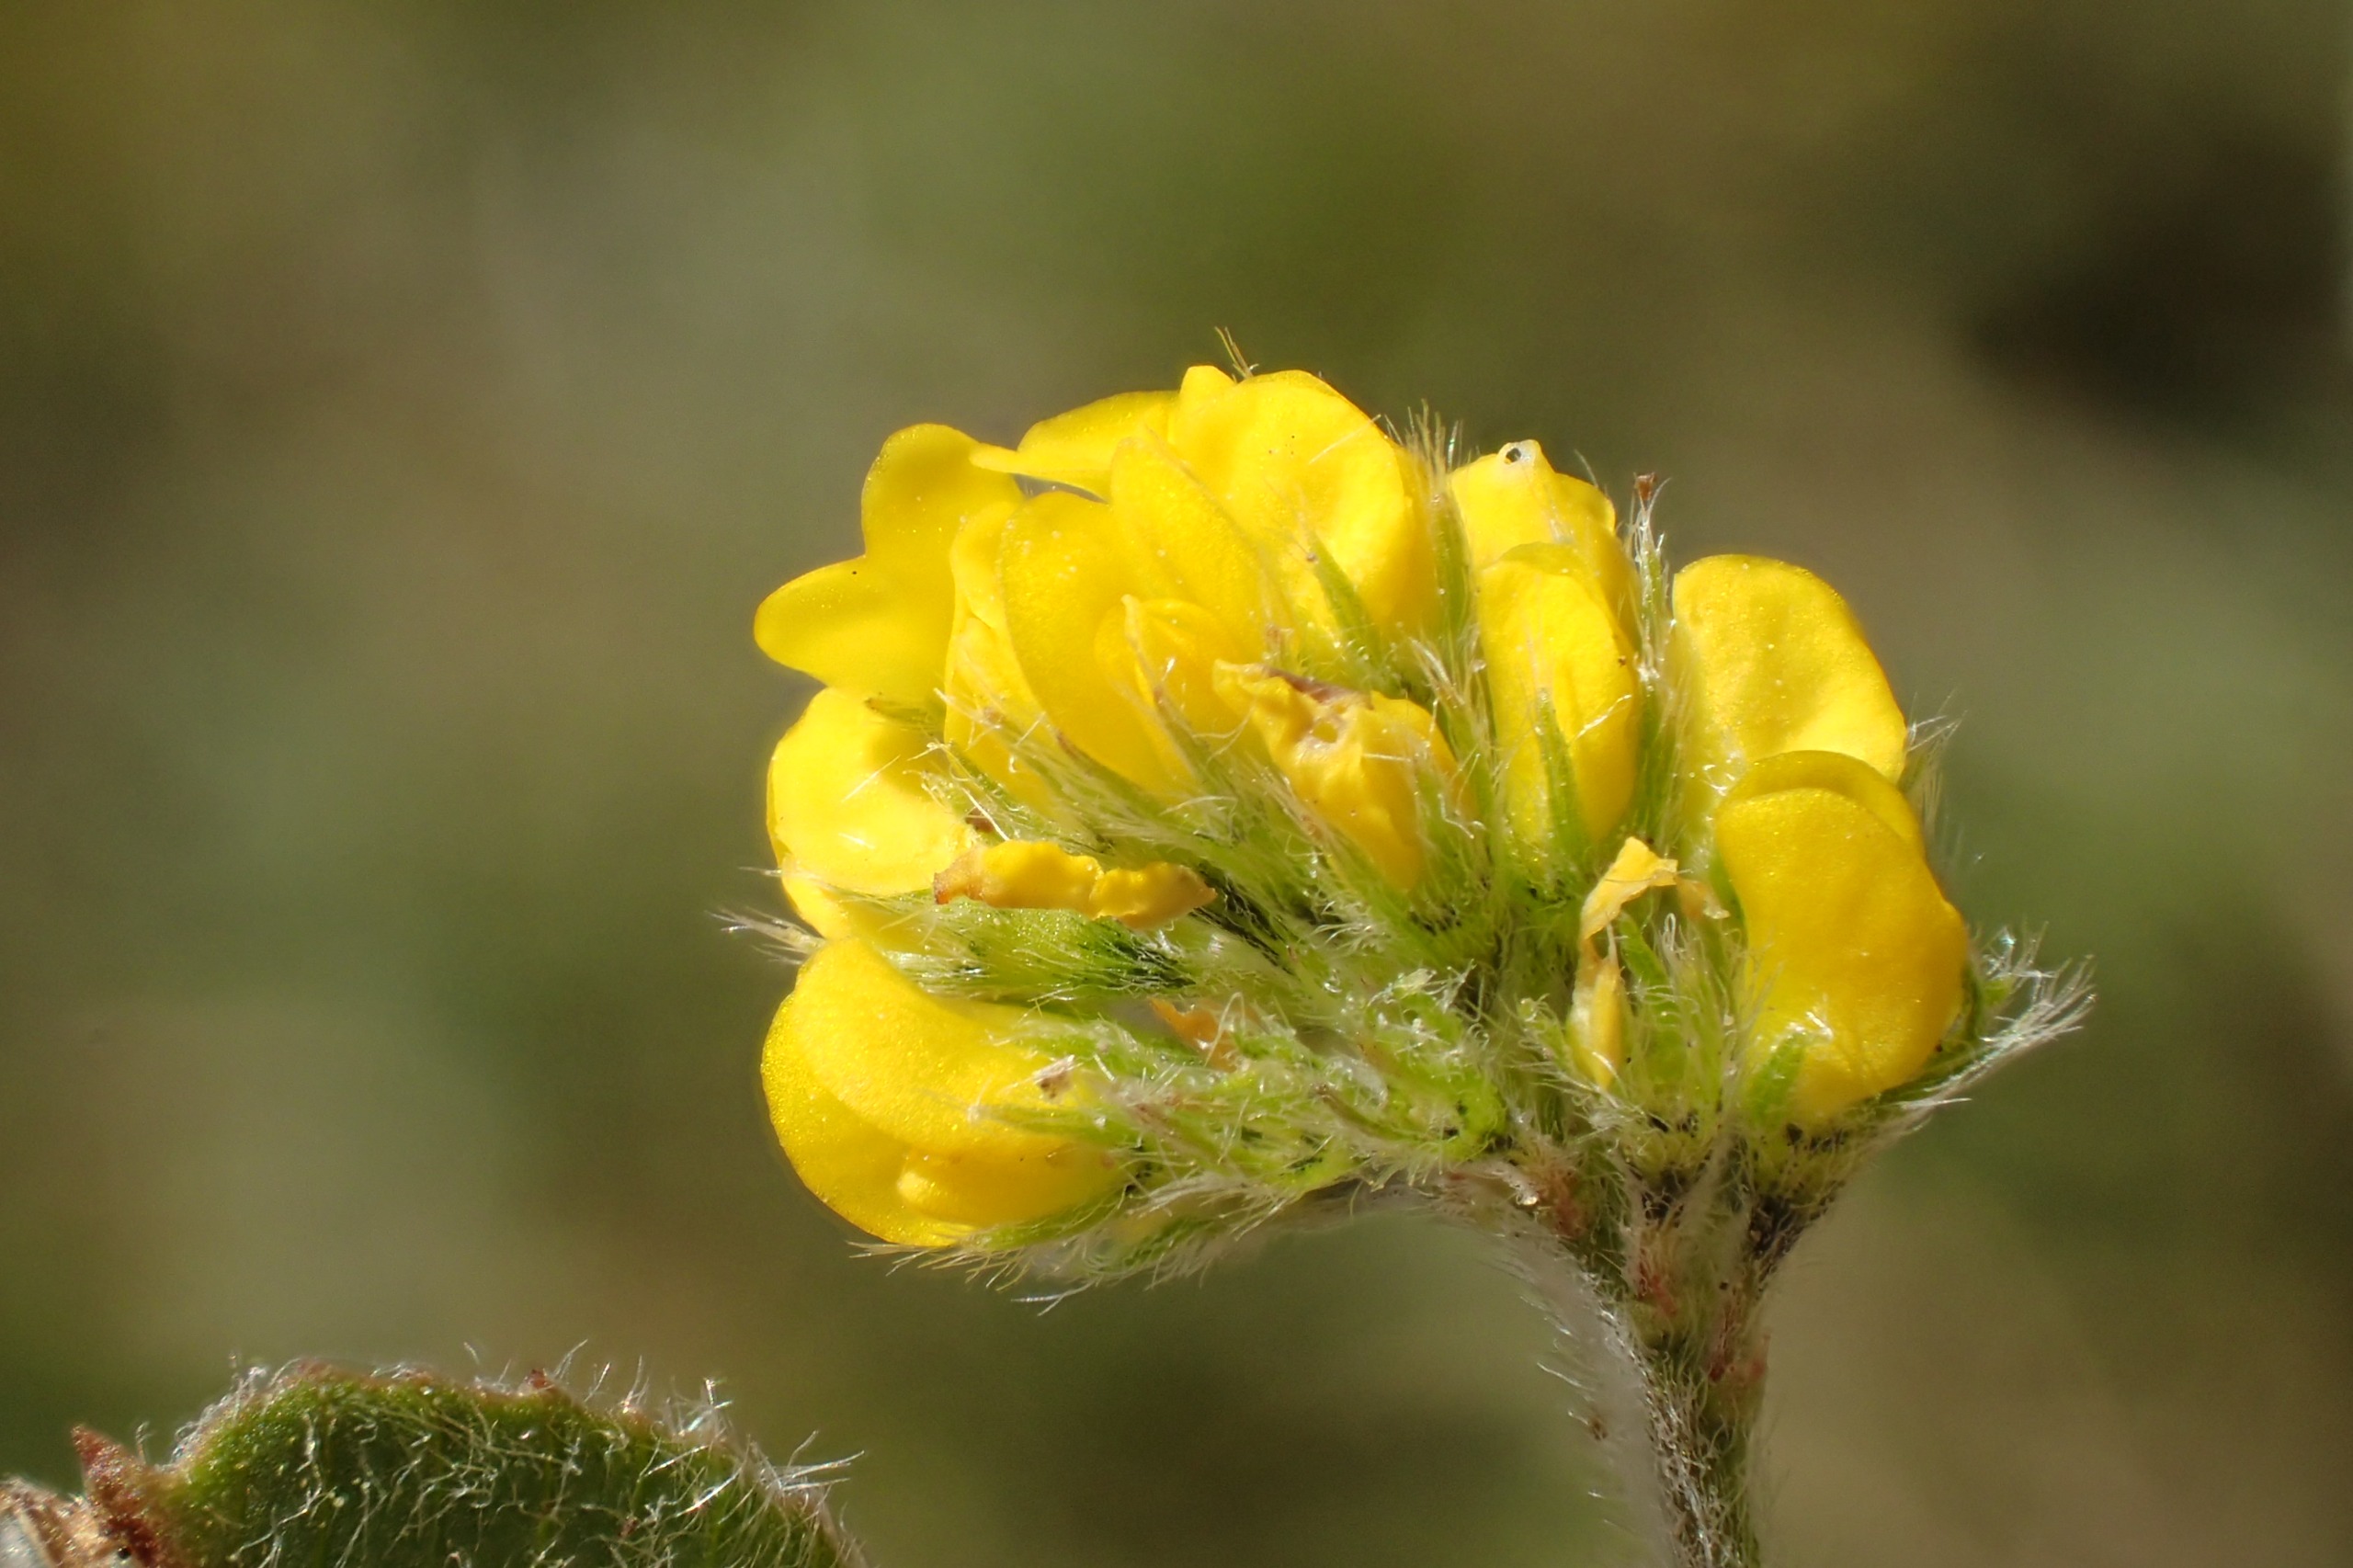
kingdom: Plantae
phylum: Tracheophyta
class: Magnoliopsida
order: Fabales
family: Fabaceae
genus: Medicago
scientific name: Medicago lupulina
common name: Humle-sneglebælg
